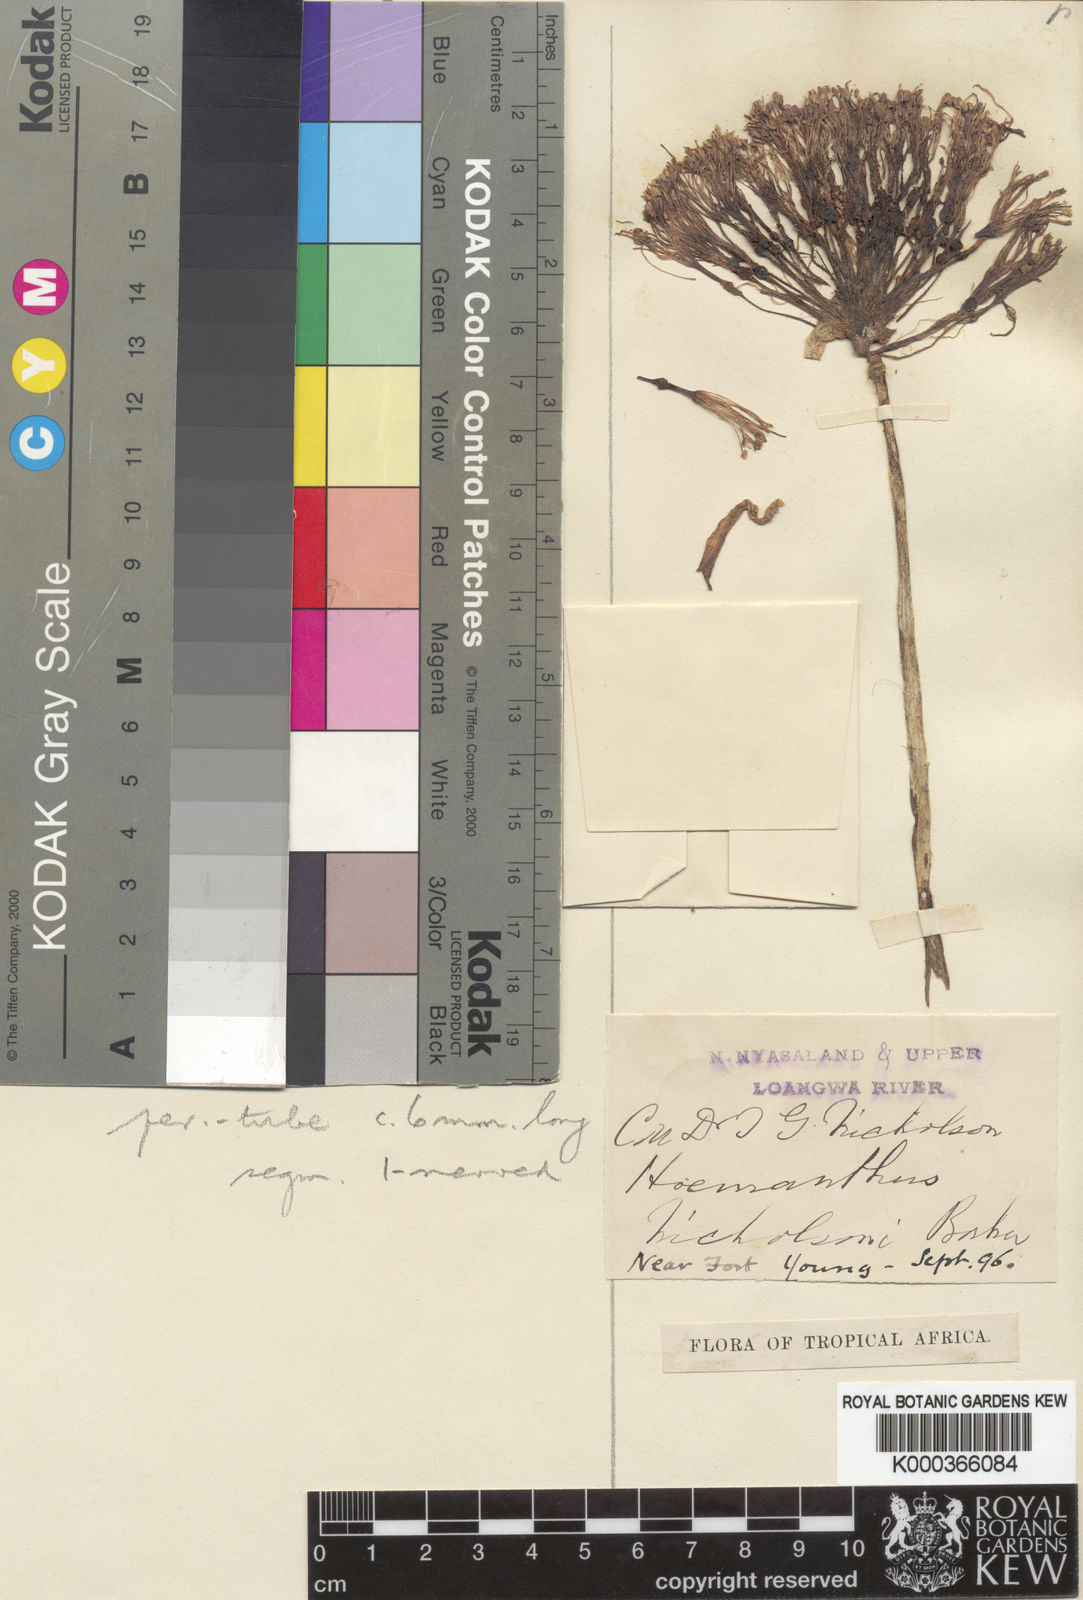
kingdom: Plantae
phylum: Tracheophyta
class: Liliopsida
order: Asparagales
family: Amaryllidaceae
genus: Scadoxus
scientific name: Scadoxus multiflorus
